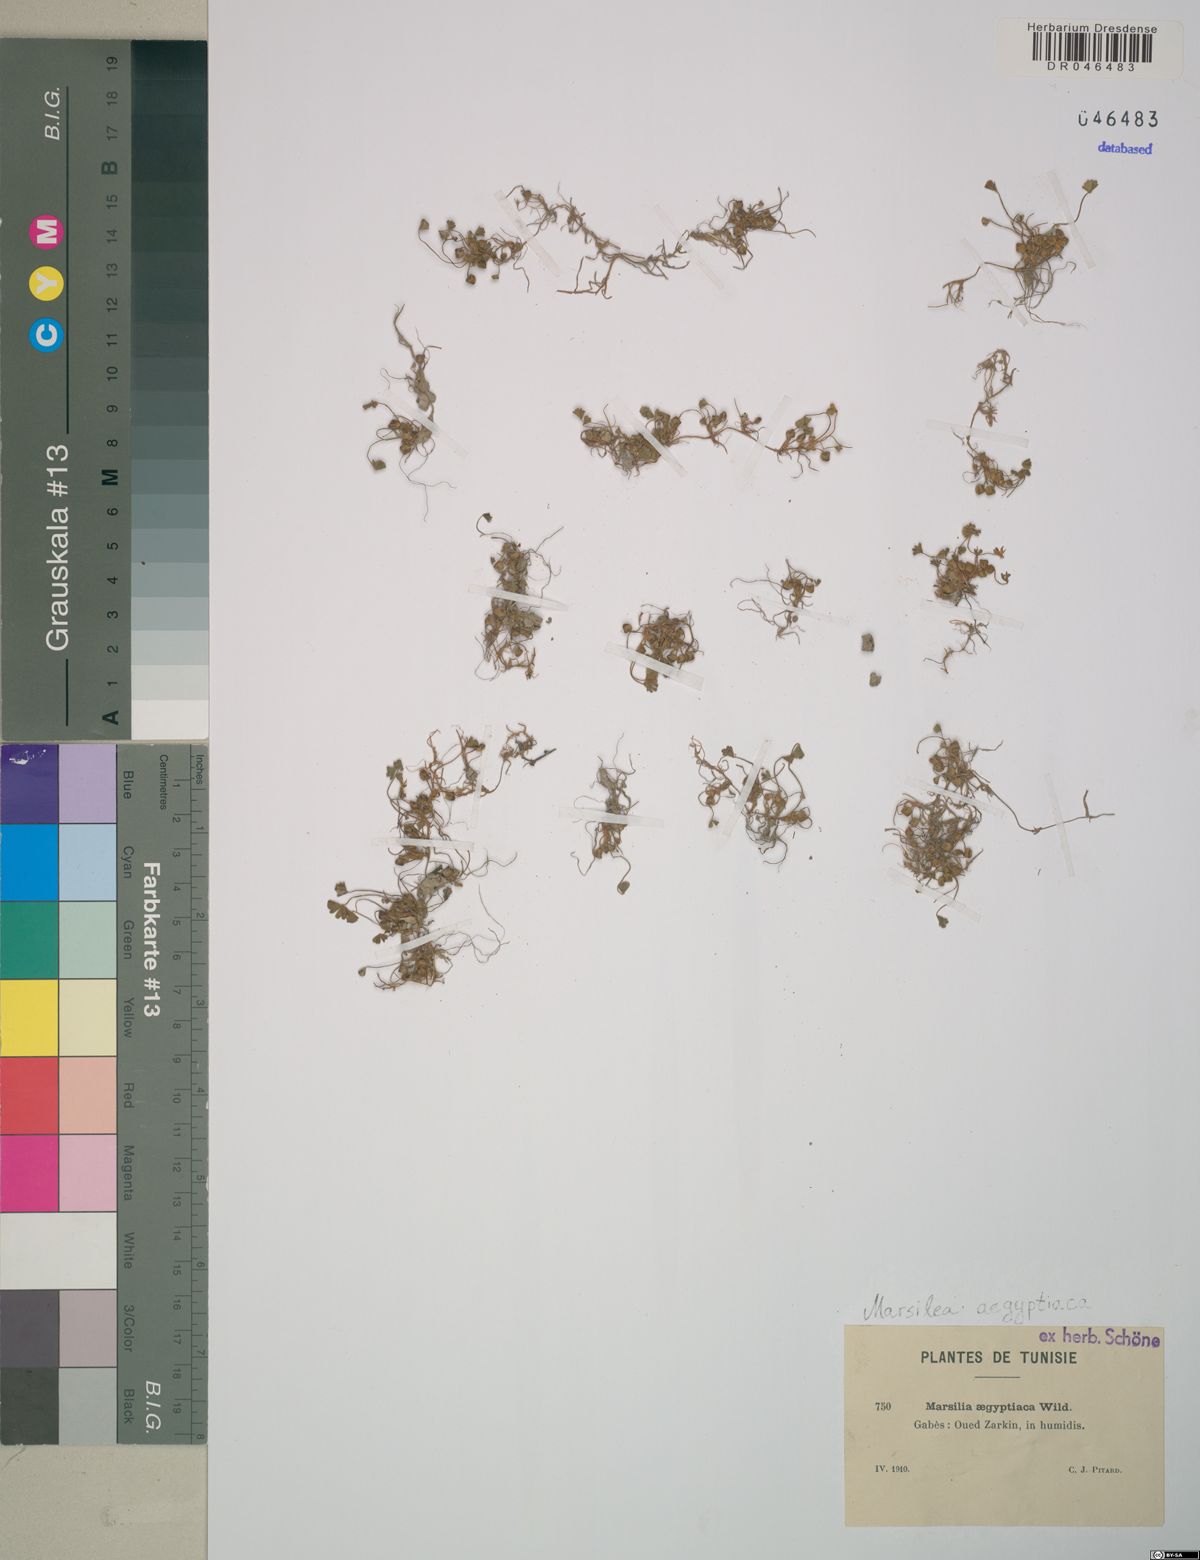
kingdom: Plantae
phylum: Tracheophyta
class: Polypodiopsida
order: Salviniales
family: Marsileaceae
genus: Marsilea
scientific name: Marsilea aegyptiaca
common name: Egyptian water-clover
